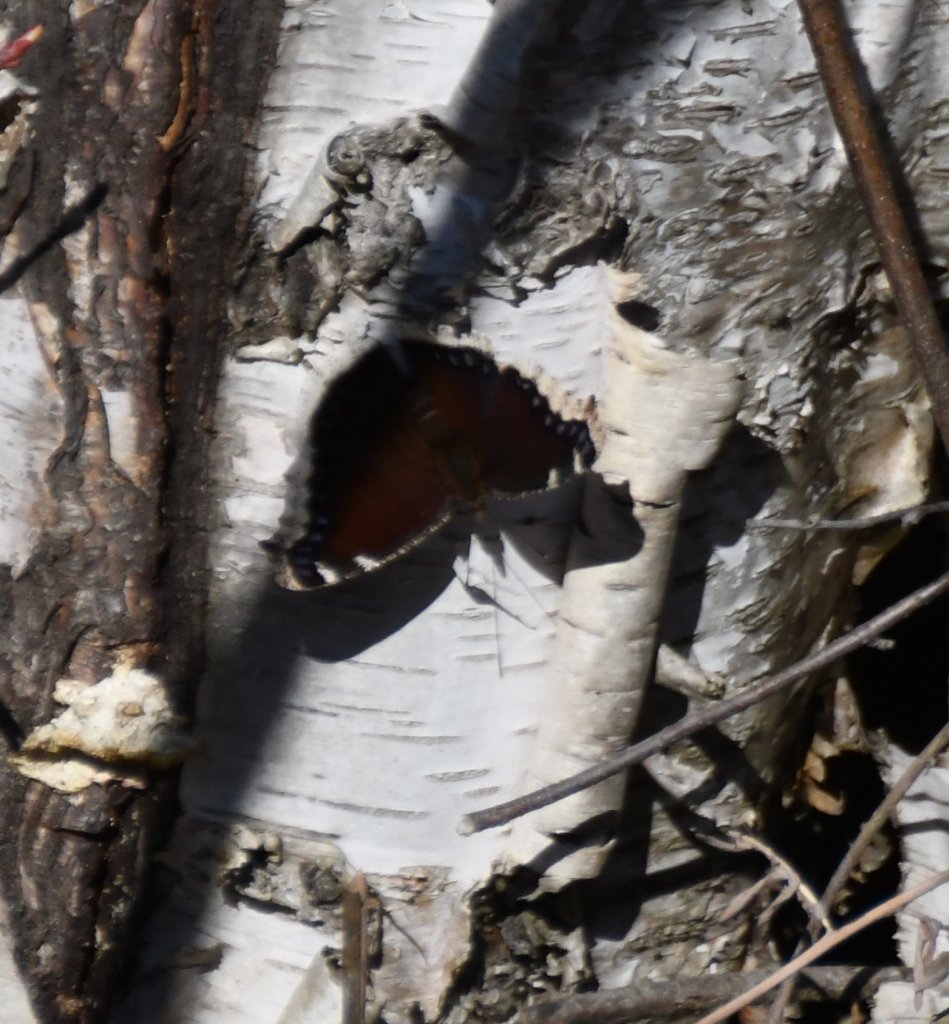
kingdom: Animalia
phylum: Arthropoda
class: Insecta
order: Lepidoptera
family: Nymphalidae
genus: Nymphalis
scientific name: Nymphalis antiopa
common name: Mourning Cloak
